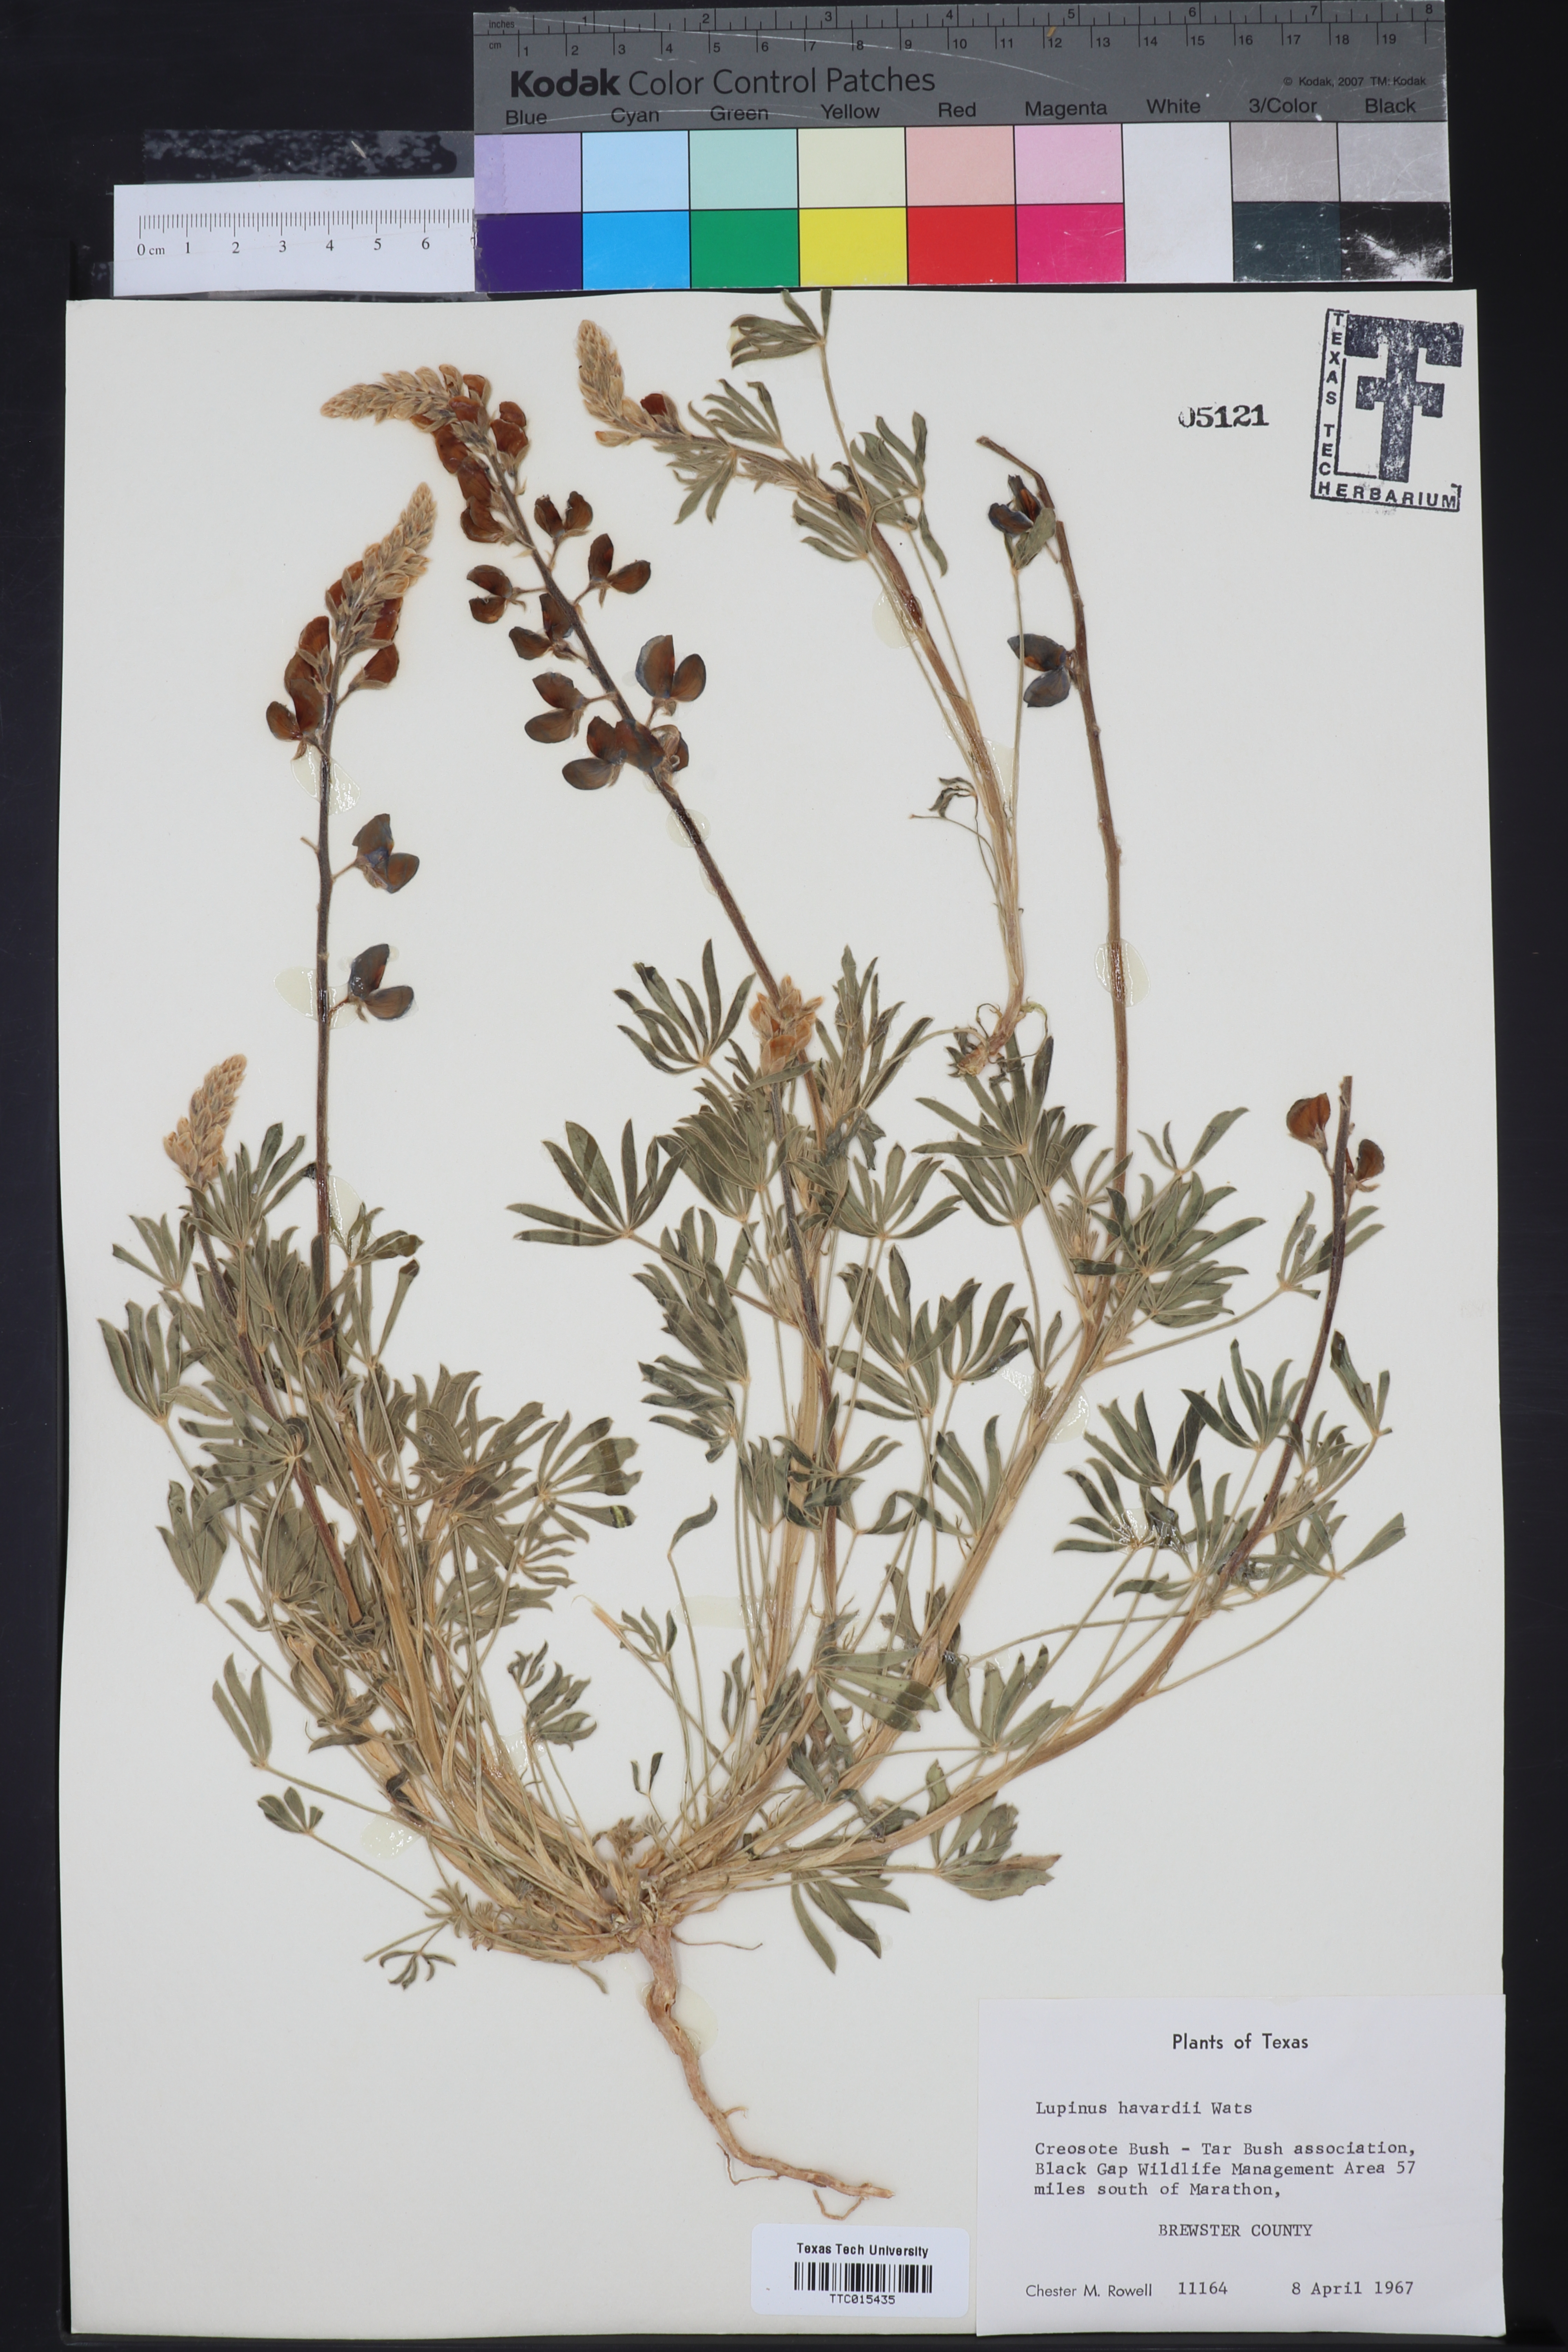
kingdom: Plantae
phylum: Tracheophyta
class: Magnoliopsida
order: Fabales
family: Fabaceae
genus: Lupinus
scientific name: Lupinus havardii
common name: Chisos bluebonnet
